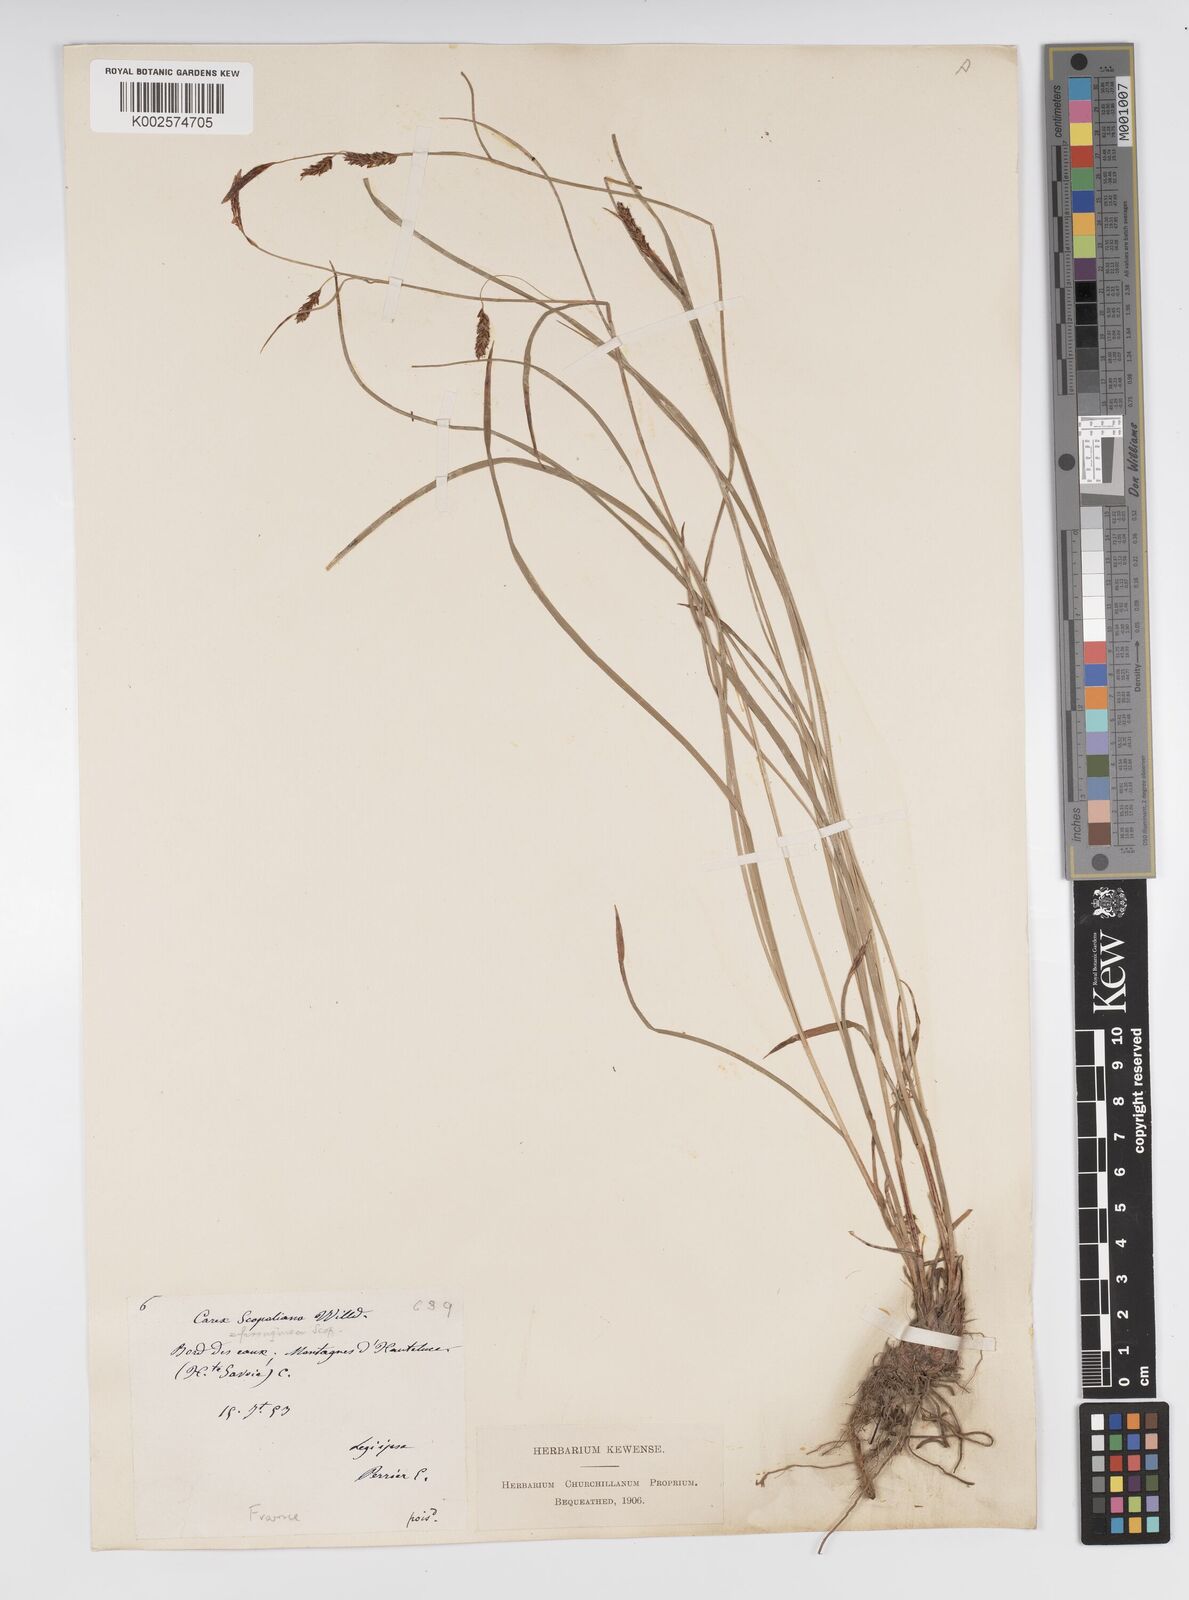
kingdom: Plantae
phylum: Tracheophyta
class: Liliopsida
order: Poales
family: Cyperaceae
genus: Carex
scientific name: Carex ferruginea
